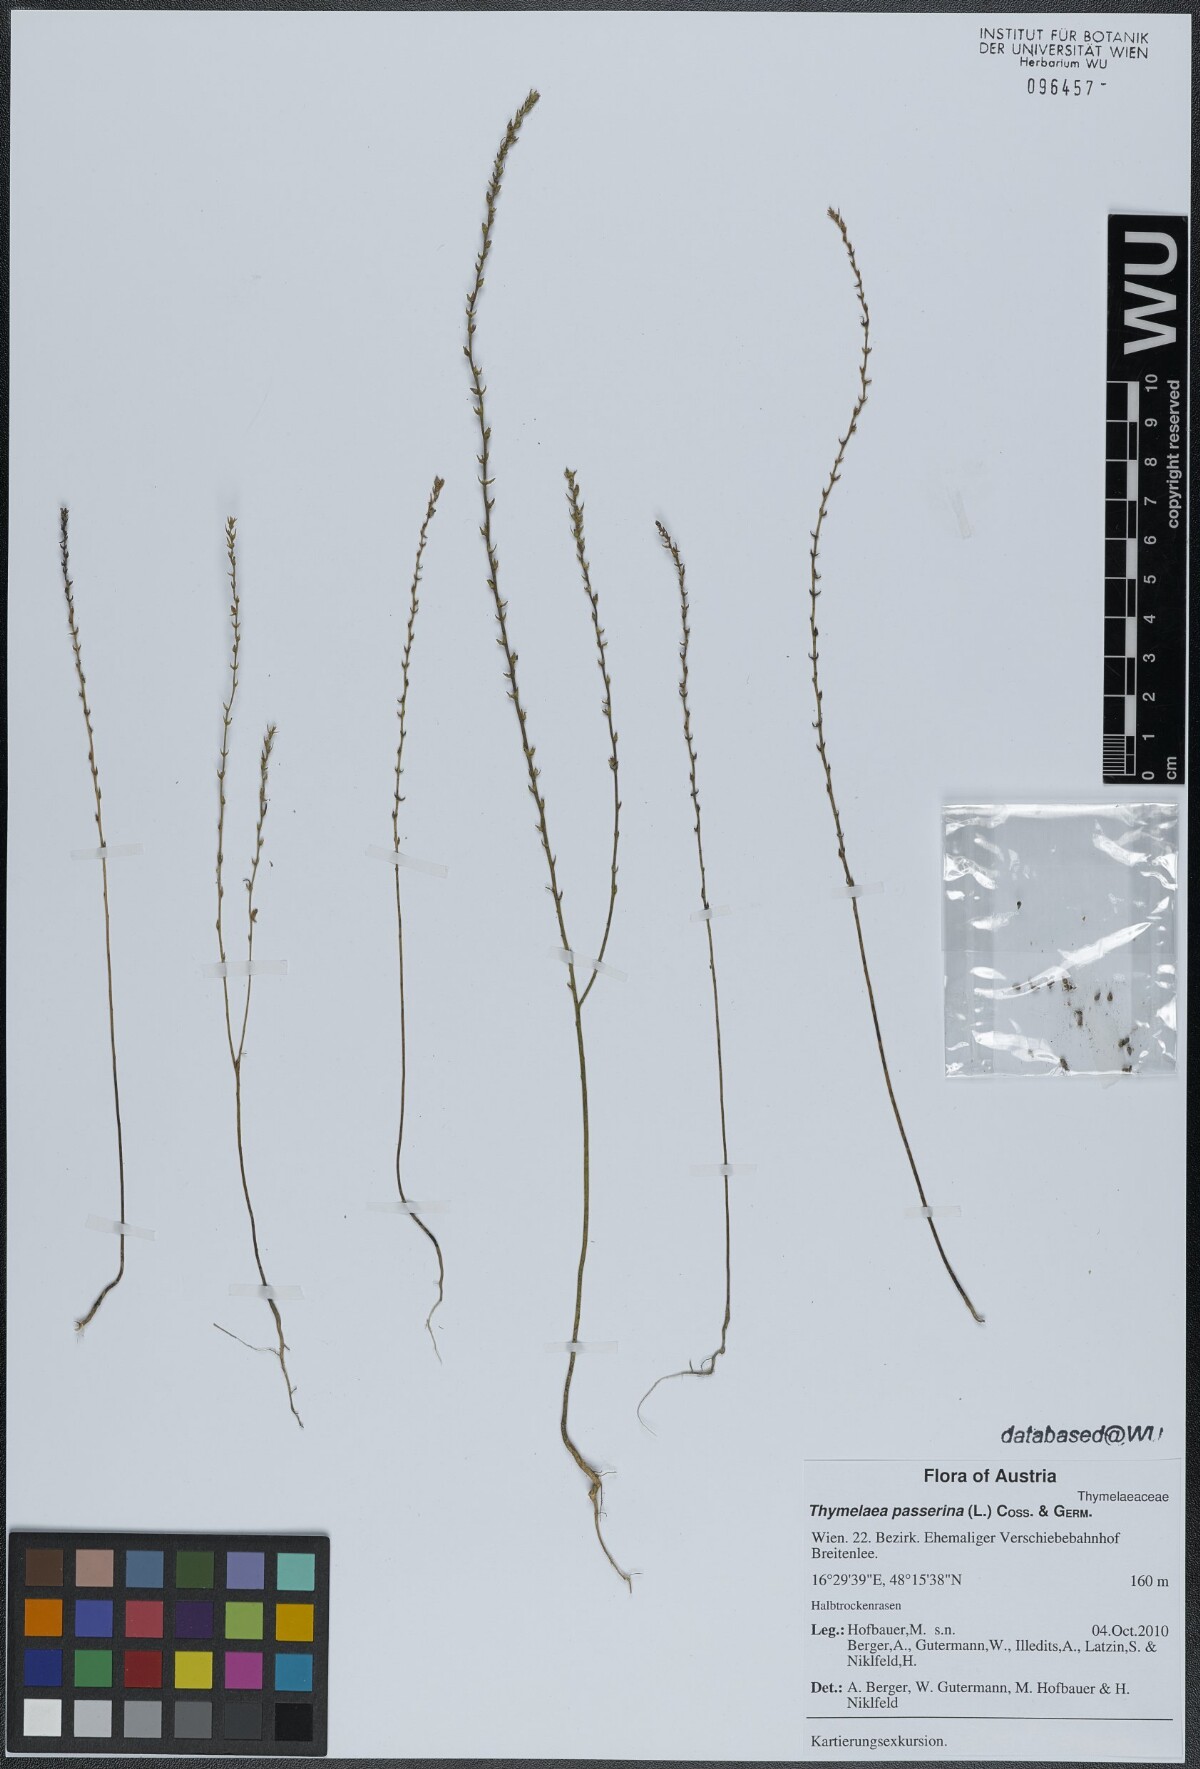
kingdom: Plantae
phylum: Tracheophyta
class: Magnoliopsida
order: Malvales
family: Thymelaeaceae
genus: Thymelaea
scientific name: Thymelaea passerina
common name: Annual thymelaea
